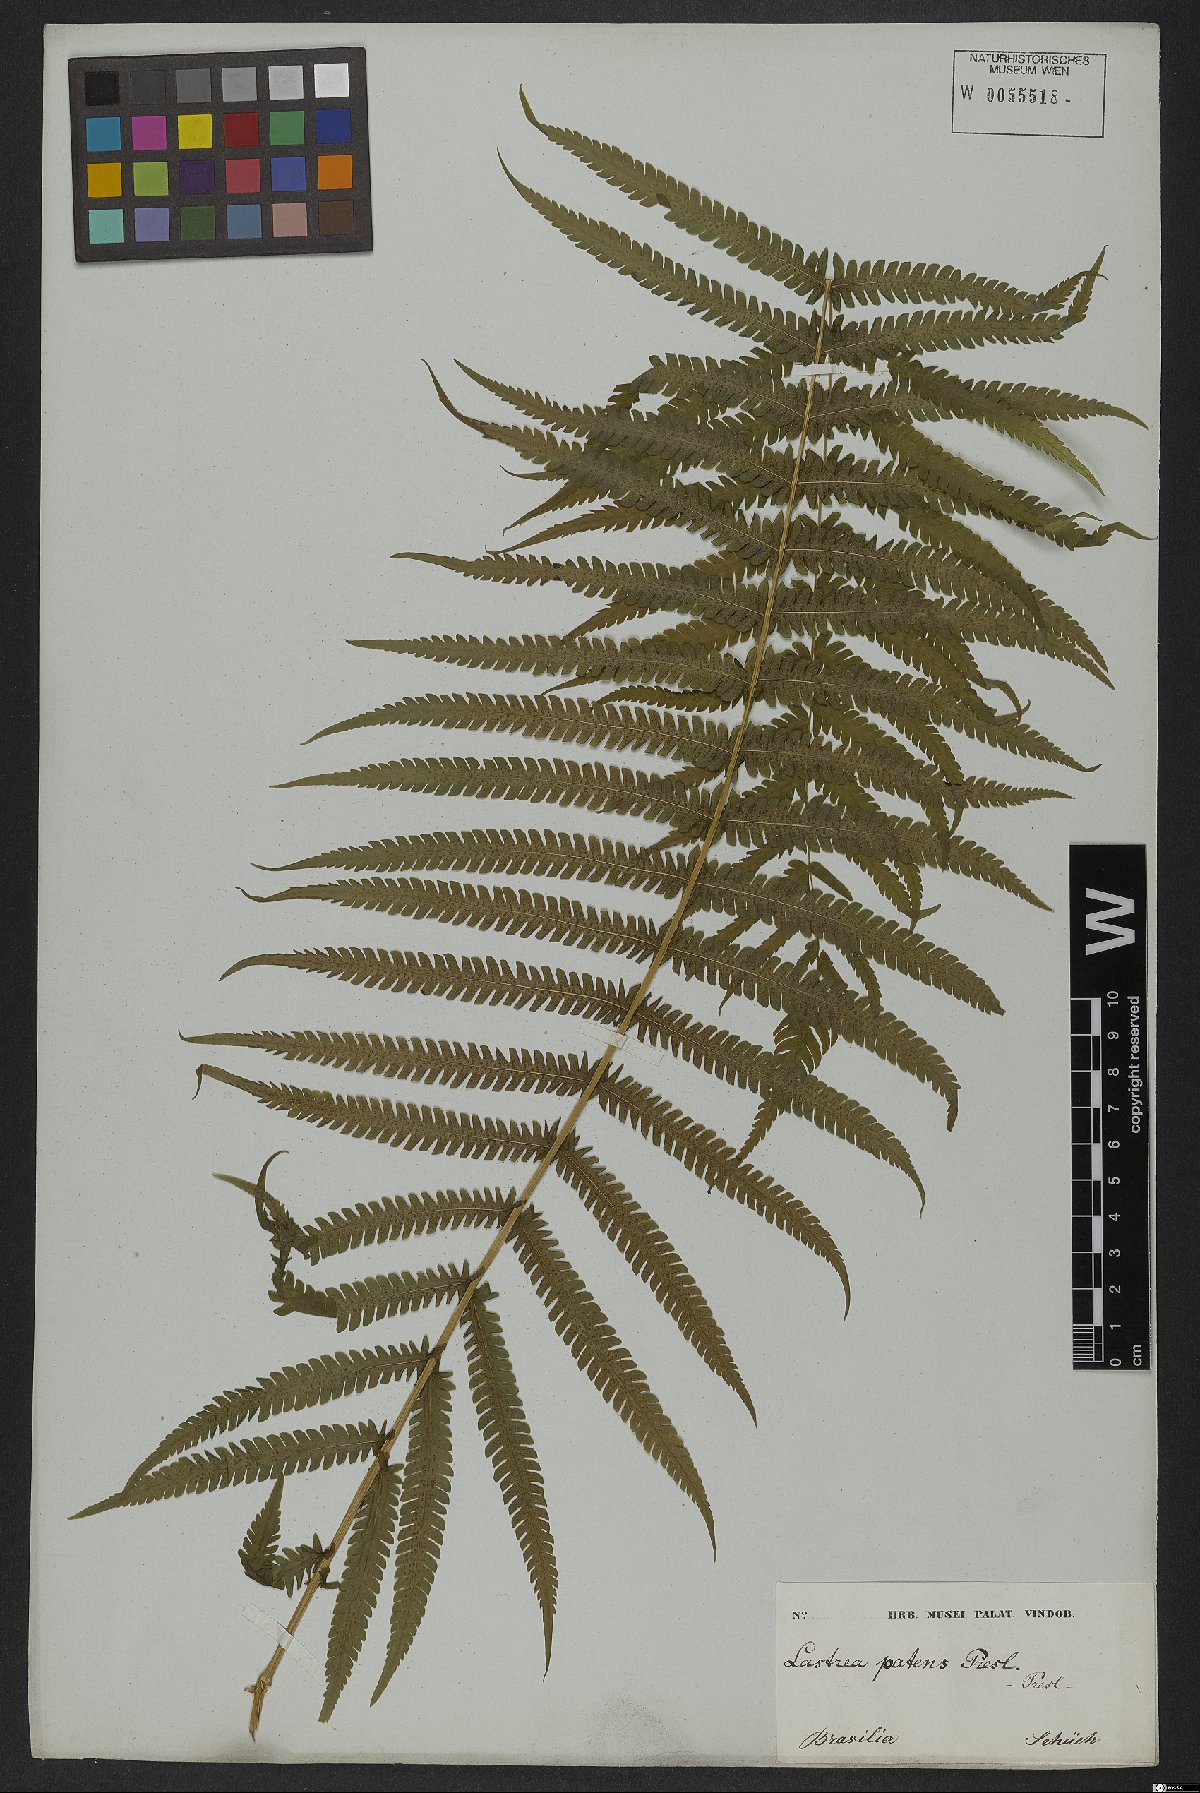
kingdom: Plantae
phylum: Tracheophyta
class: Polypodiopsida
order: Polypodiales
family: Thelypteridaceae
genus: Pelazoneuron
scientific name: Pelazoneuron patens
